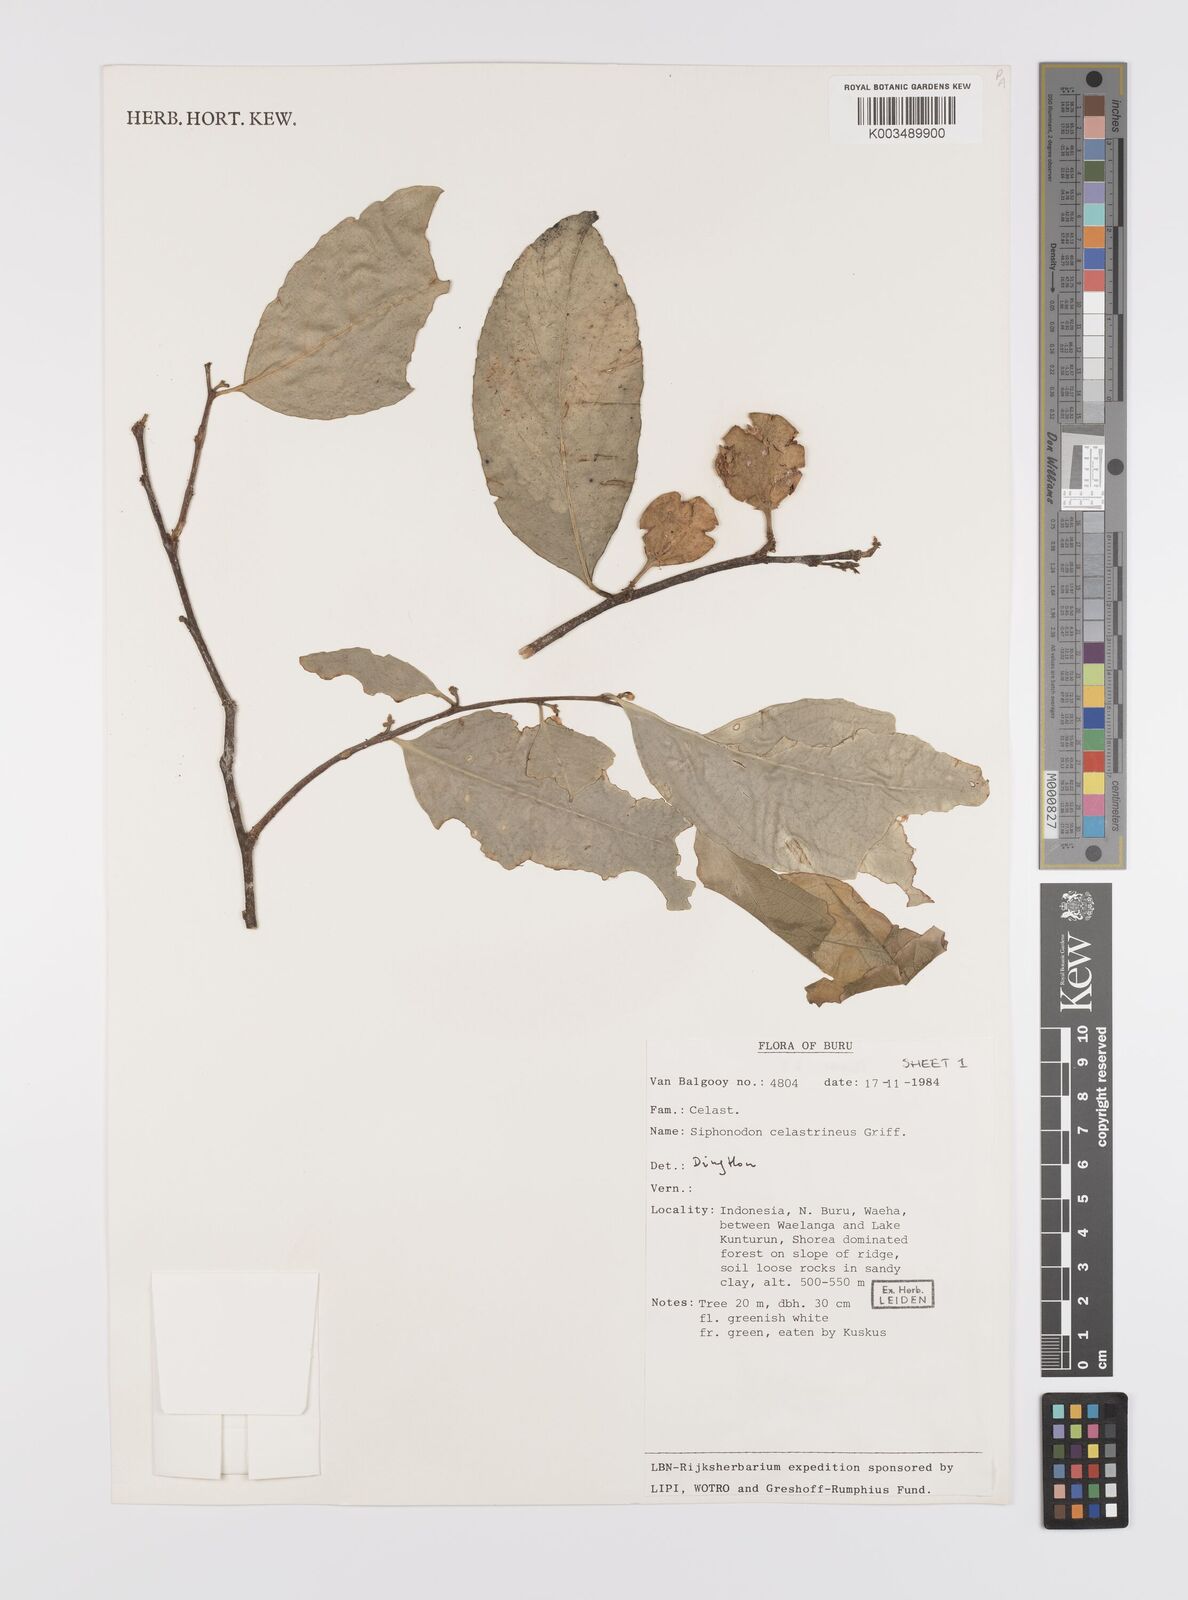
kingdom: Plantae
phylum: Tracheophyta
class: Magnoliopsida
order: Celastrales
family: Celastraceae
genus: Siphonodon
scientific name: Siphonodon celastrineus
